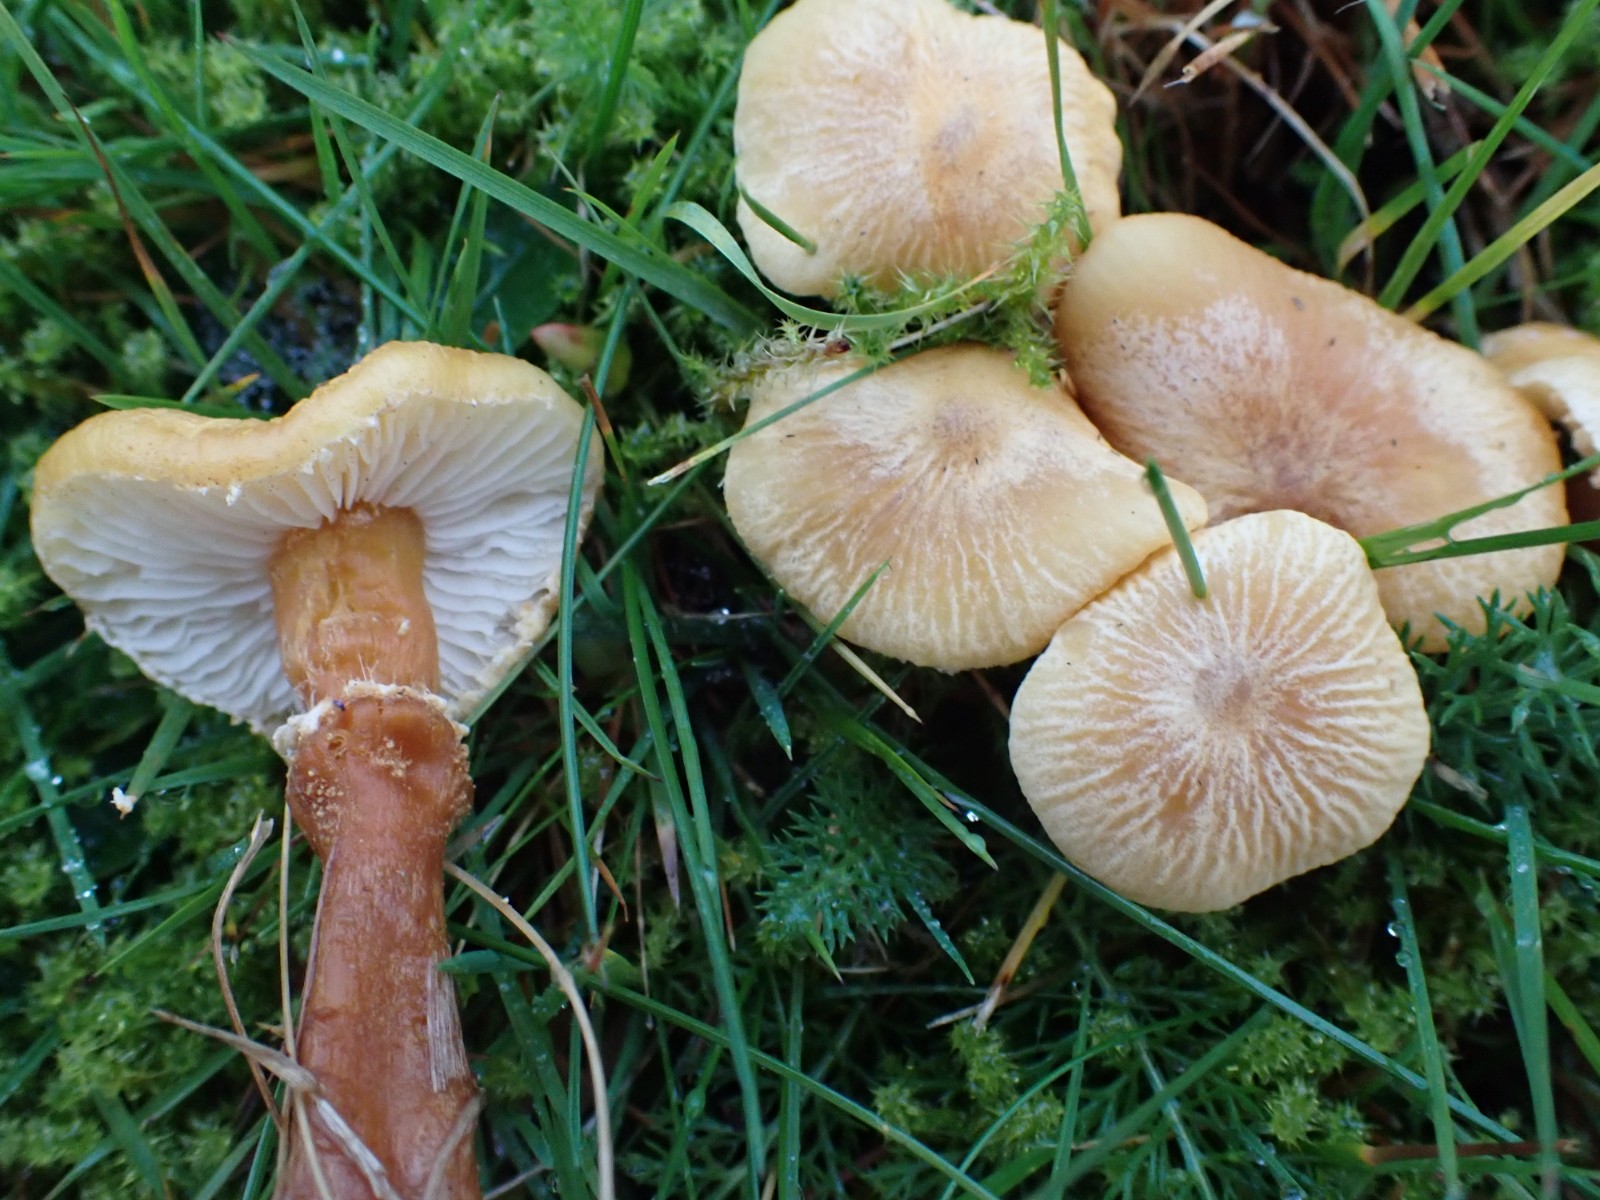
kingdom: Fungi
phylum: Basidiomycota
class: Agaricomycetes
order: Agaricales
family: Tricholomataceae
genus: Cystoderma
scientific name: Cystoderma amianthinum
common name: okkergul grynhat
